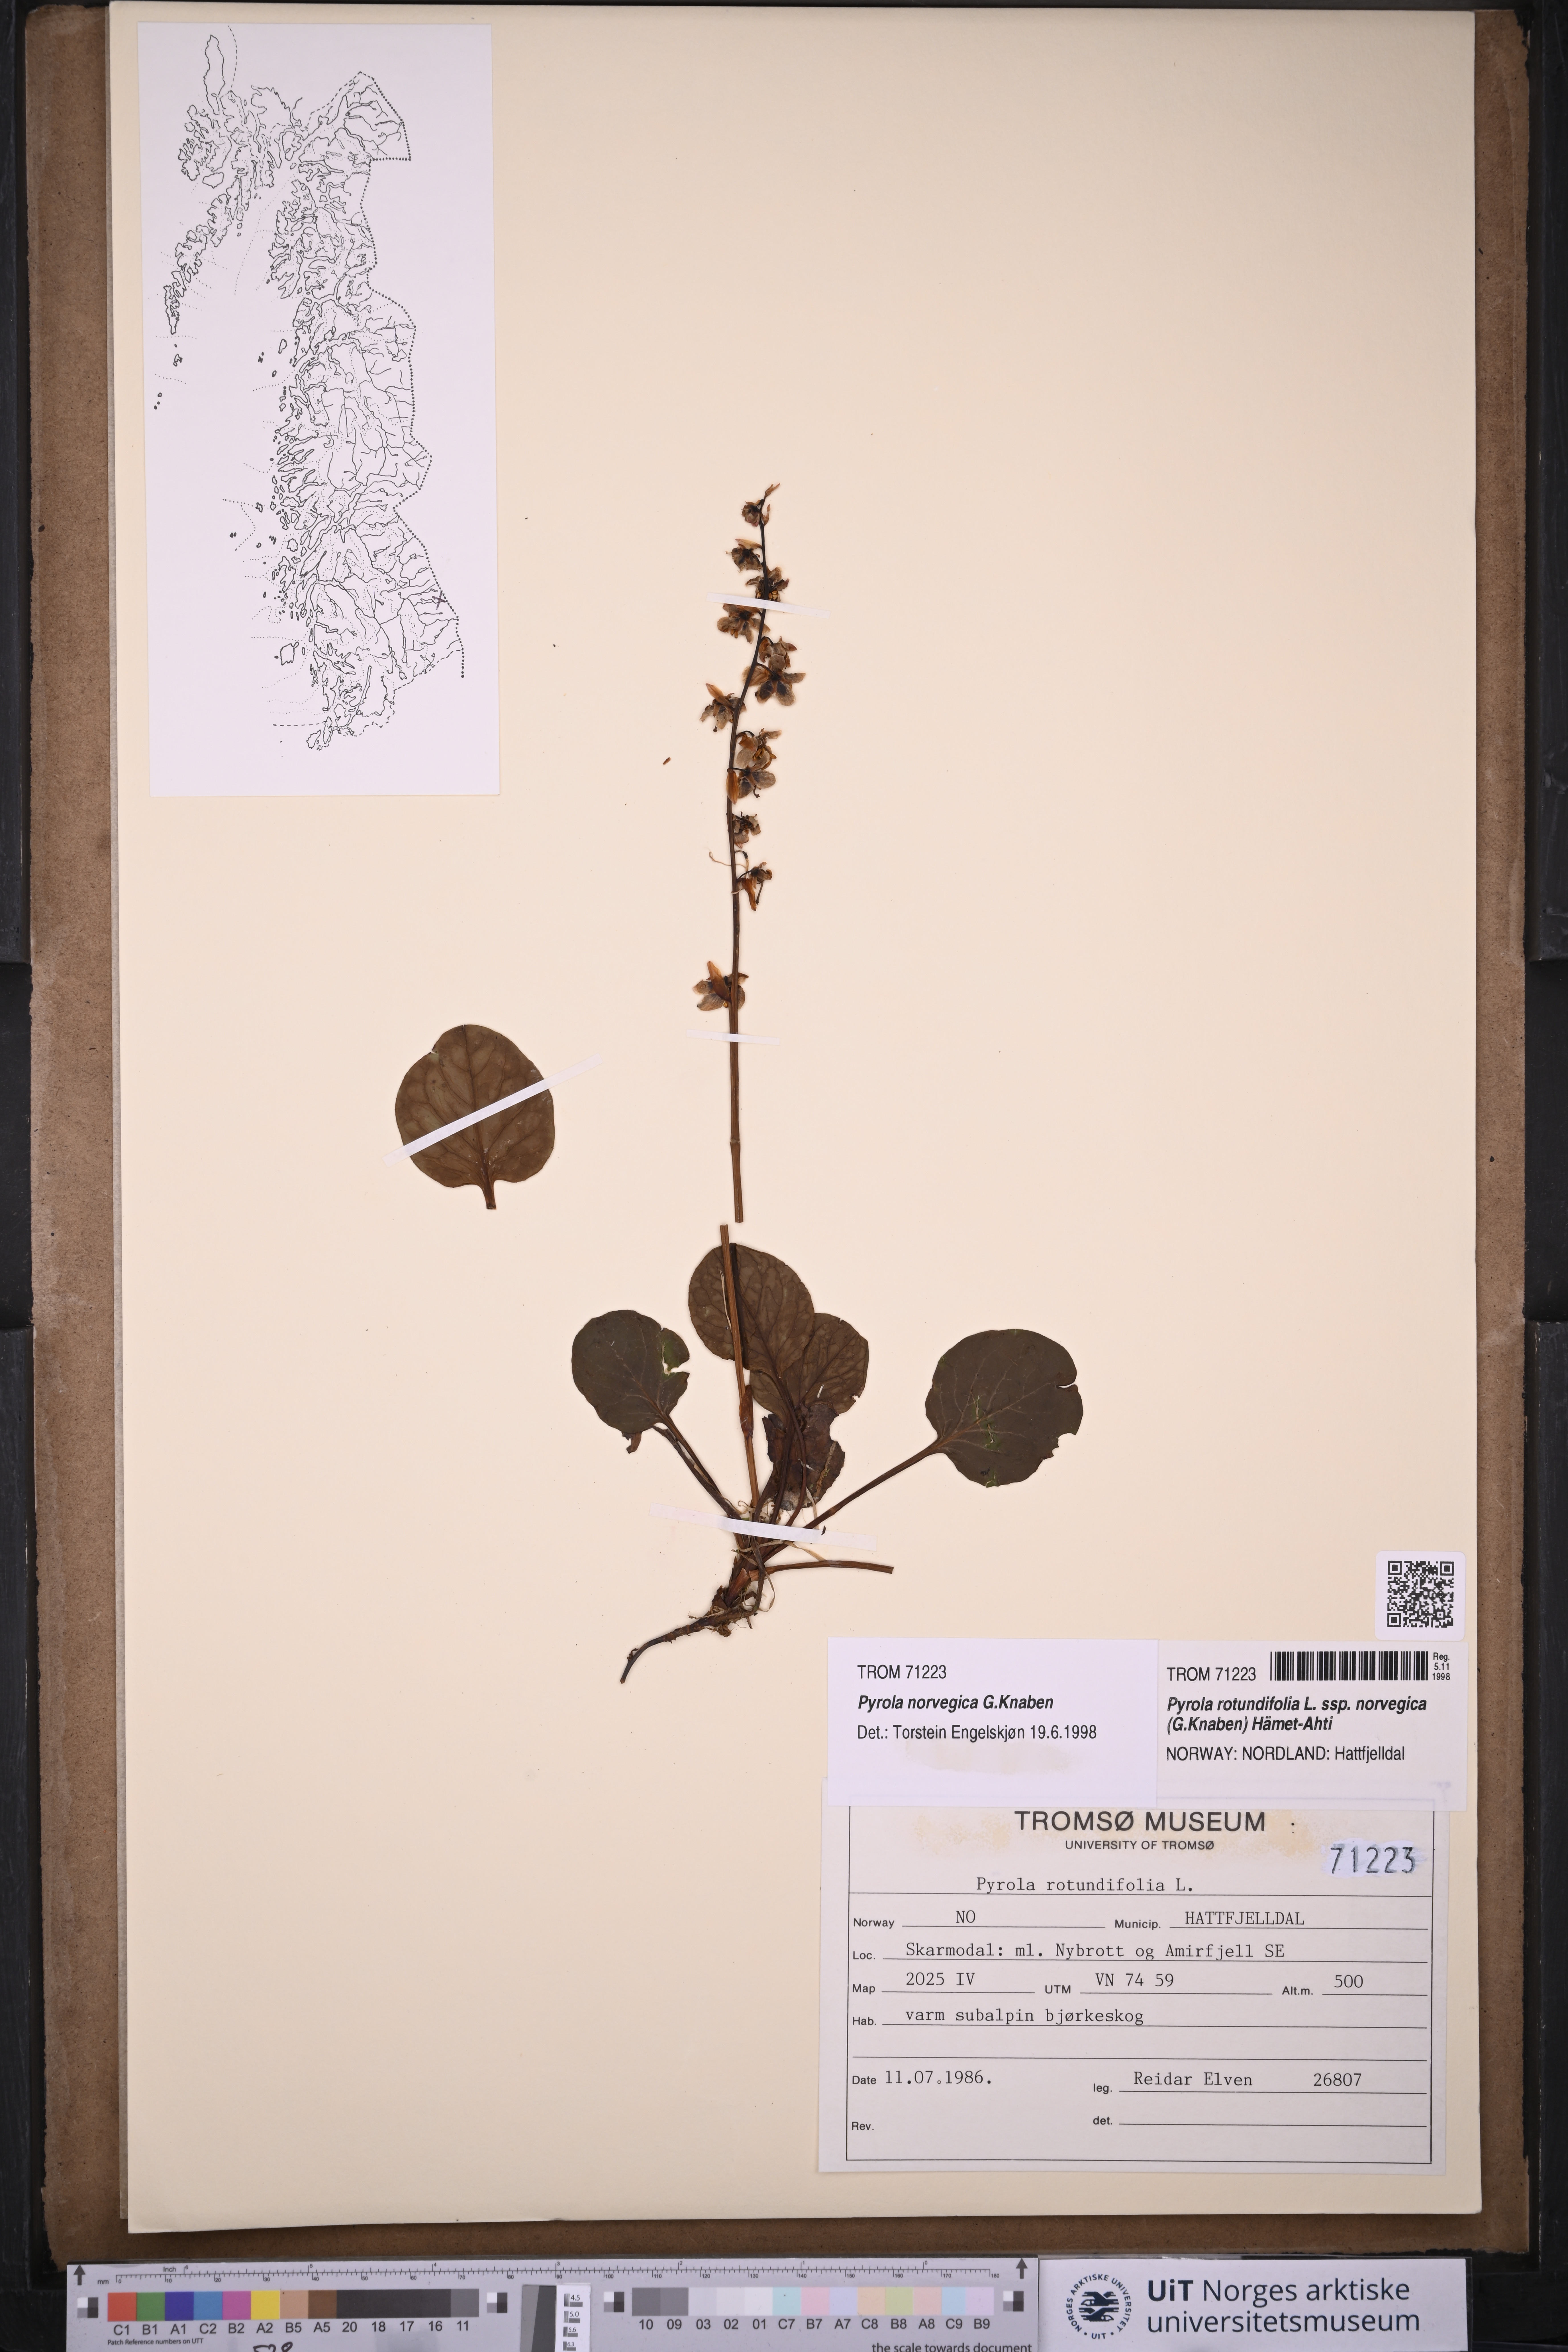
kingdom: Plantae
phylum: Tracheophyta
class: Magnoliopsida
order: Ericales
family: Ericaceae
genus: Pyrola
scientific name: Pyrola rotundifolia
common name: Round-leaved wintergreen
